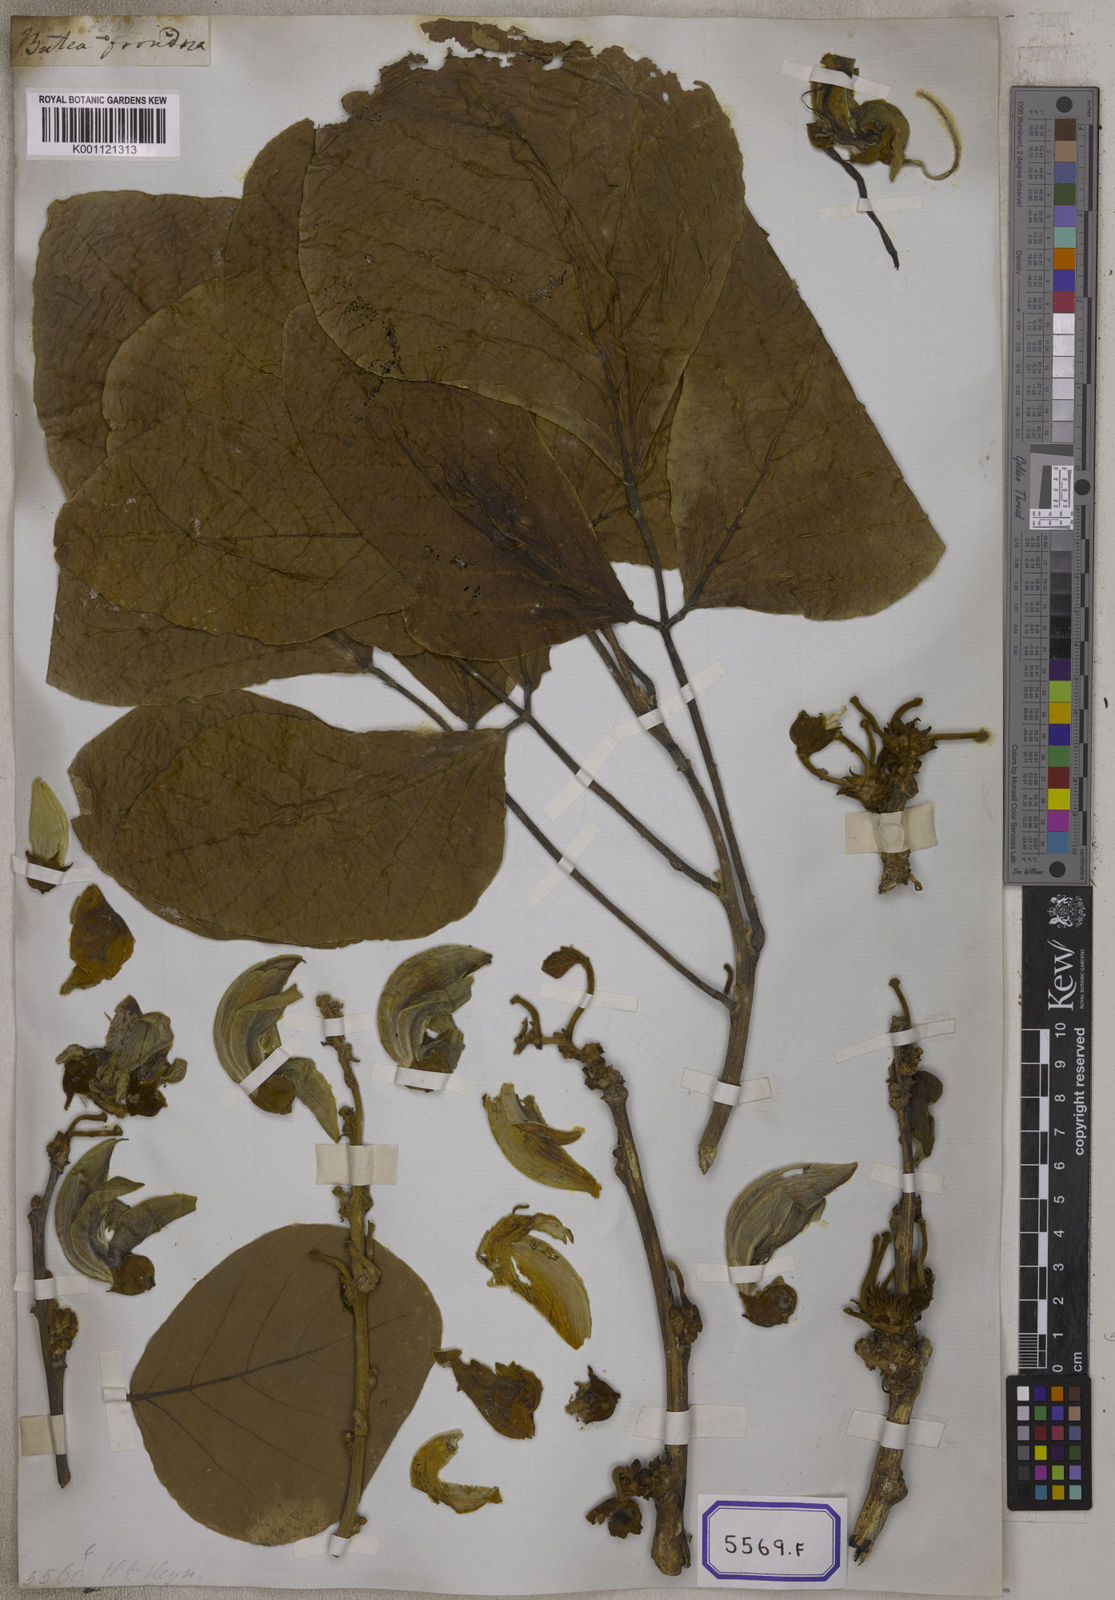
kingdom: Plantae
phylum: Tracheophyta
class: Magnoliopsida
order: Fabales
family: Fabaceae
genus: Butea
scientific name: Butea
